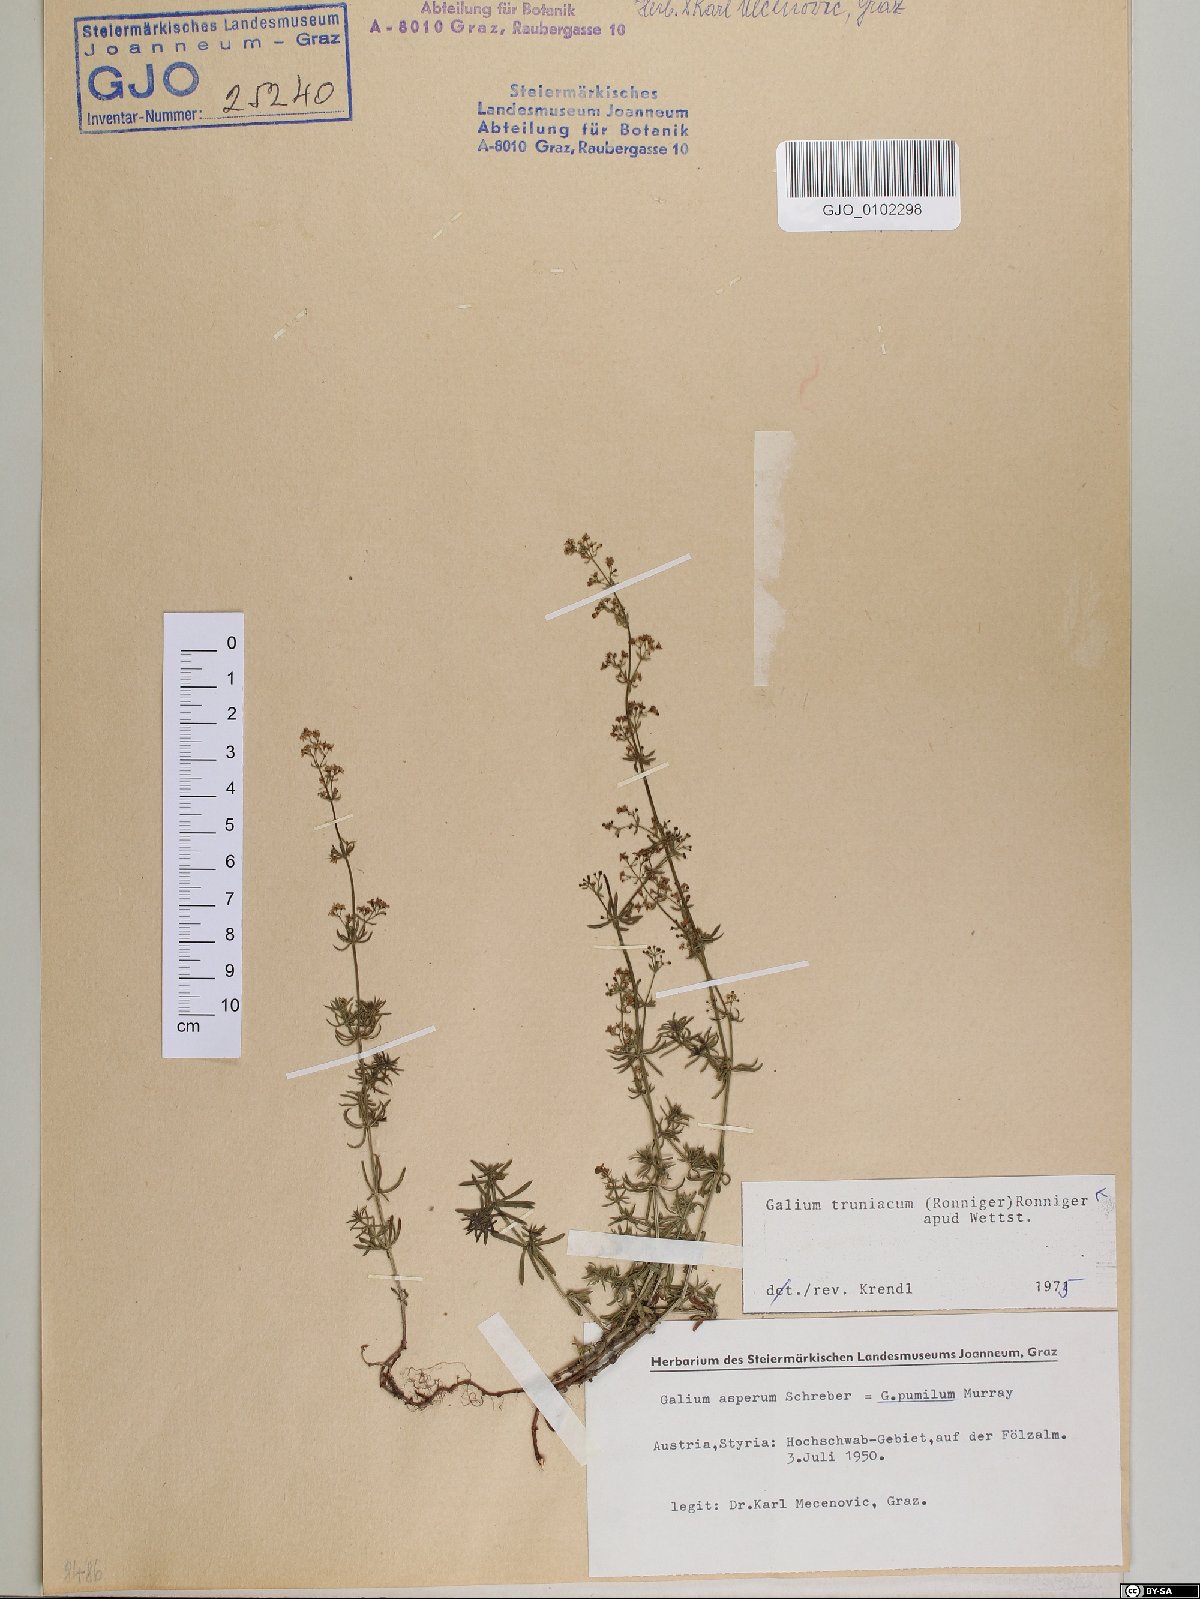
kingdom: Plantae
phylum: Tracheophyta
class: Magnoliopsida
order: Gentianales
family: Rubiaceae
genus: Galium
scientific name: Galium truniacum
